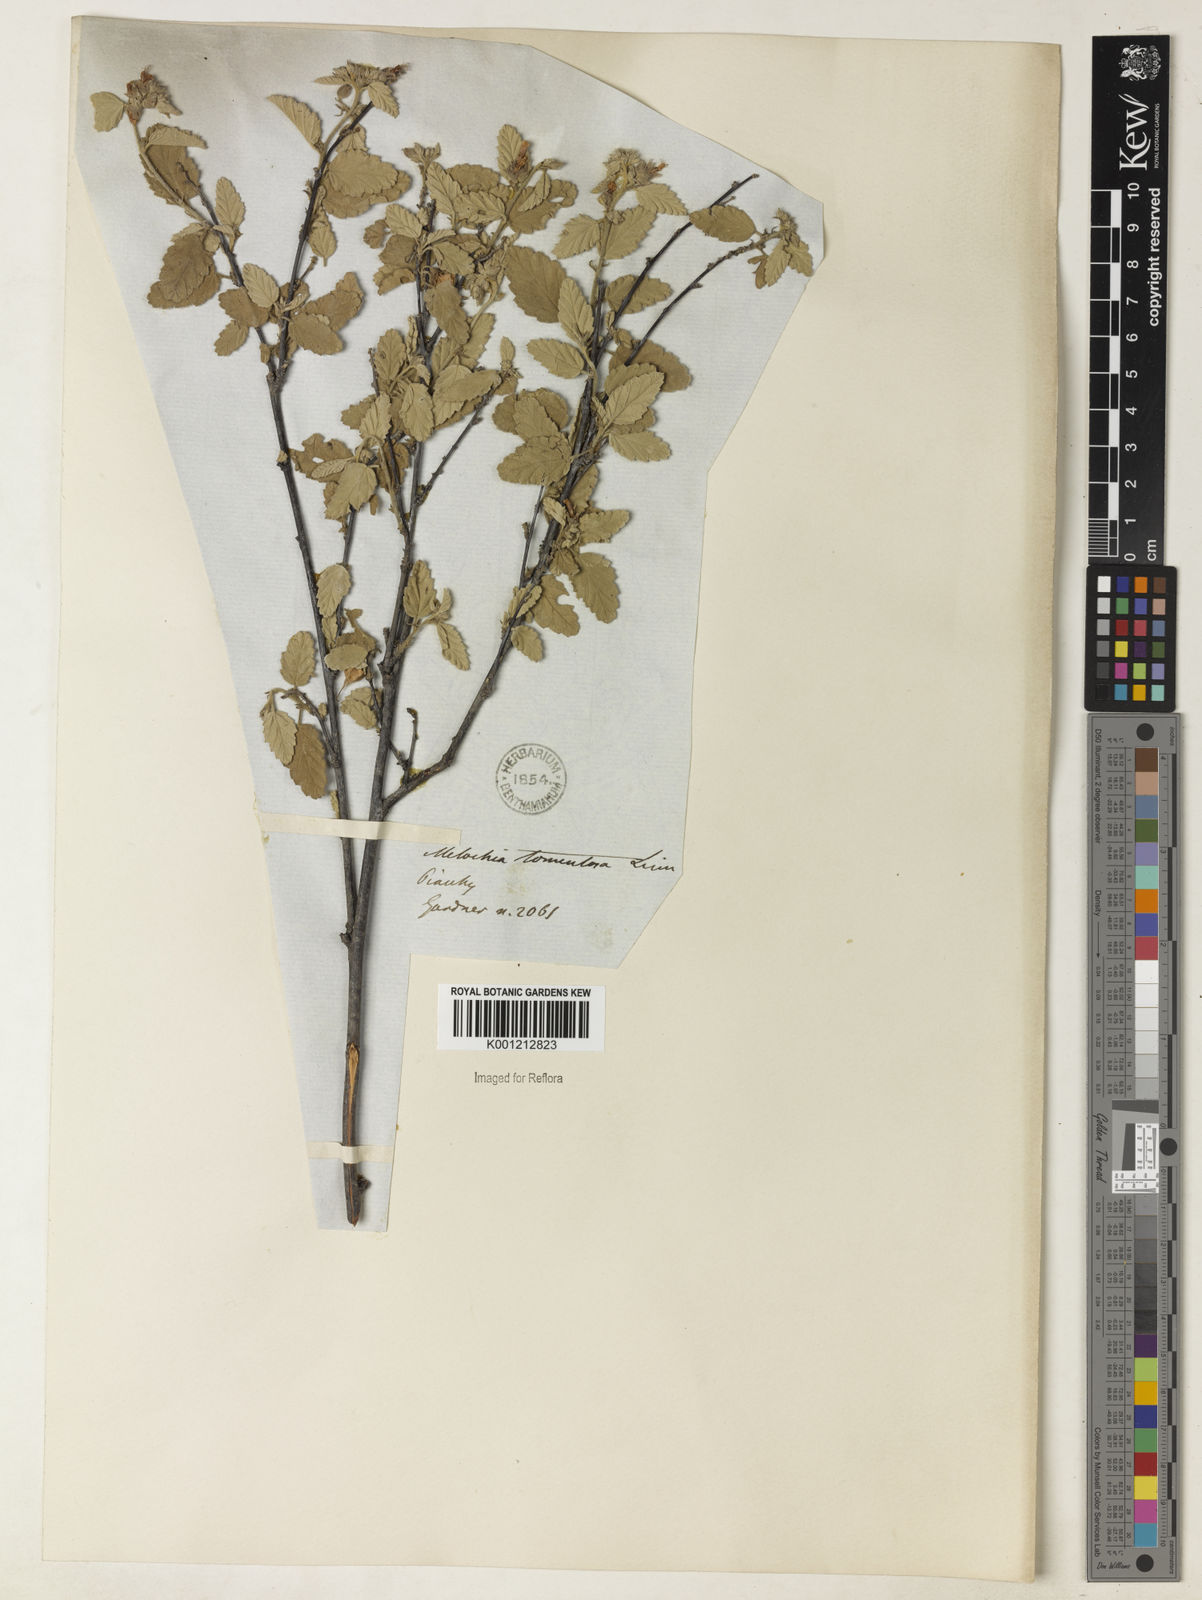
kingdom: Plantae
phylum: Tracheophyta
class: Magnoliopsida
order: Malvales
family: Malvaceae
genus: Melochia
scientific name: Melochia tomentosa
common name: Black torch
